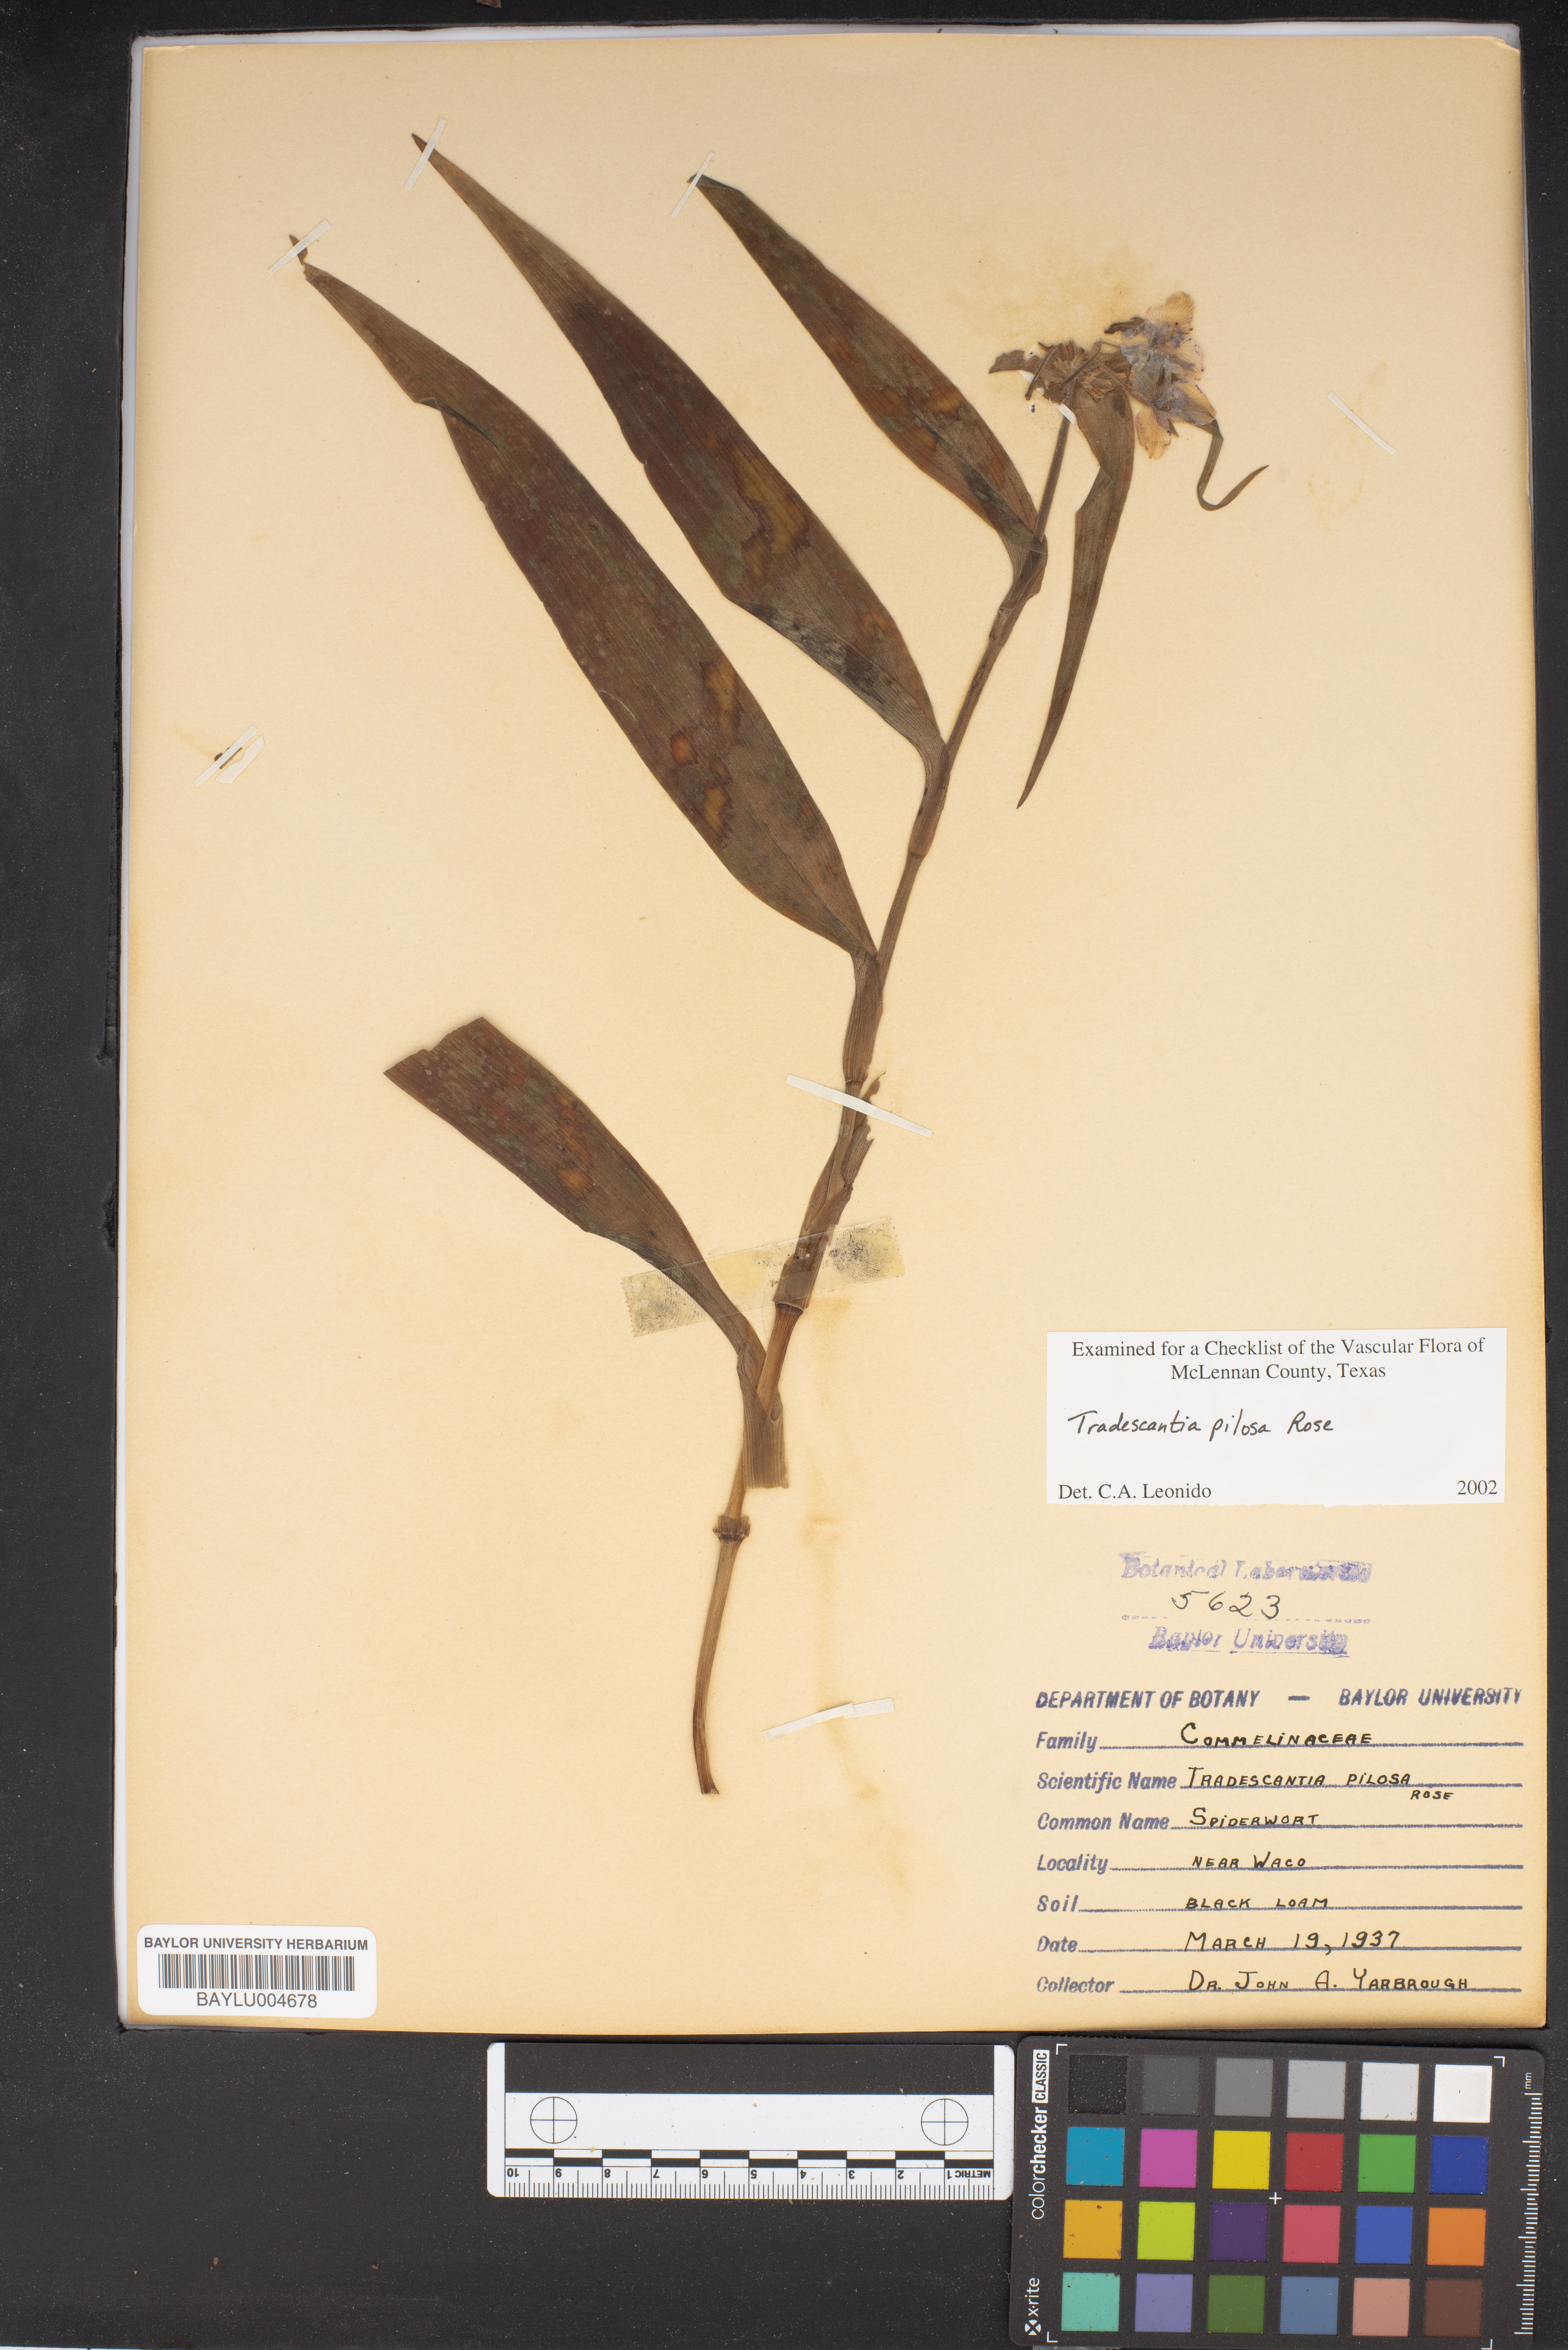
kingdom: Plantae
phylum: Tracheophyta
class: Liliopsida
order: Commelinales
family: Commelinaceae
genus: Tradescantia
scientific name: Tradescantia subaspera
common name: Wide-leaf spiderwort
